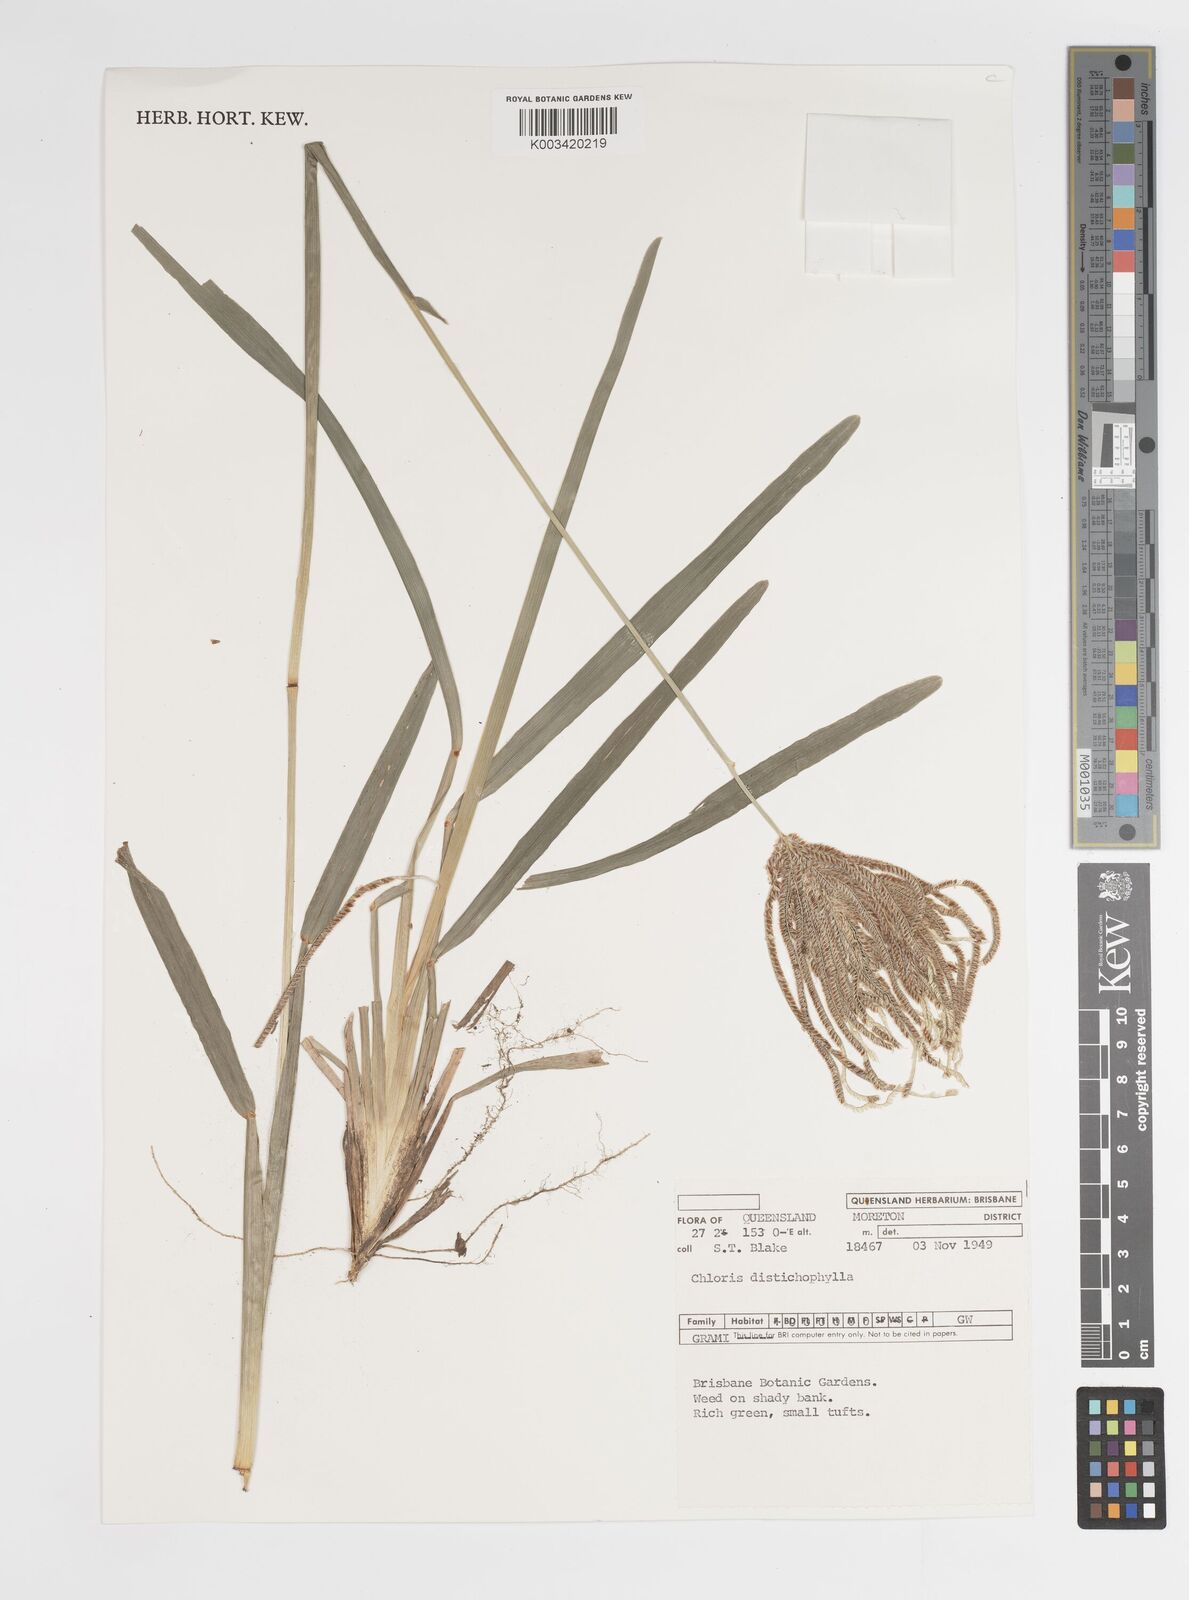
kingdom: Plantae
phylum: Tracheophyta
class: Liliopsida
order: Poales
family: Poaceae
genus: Eustachys
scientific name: Eustachys distichophylla
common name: Weeping fingergrass
